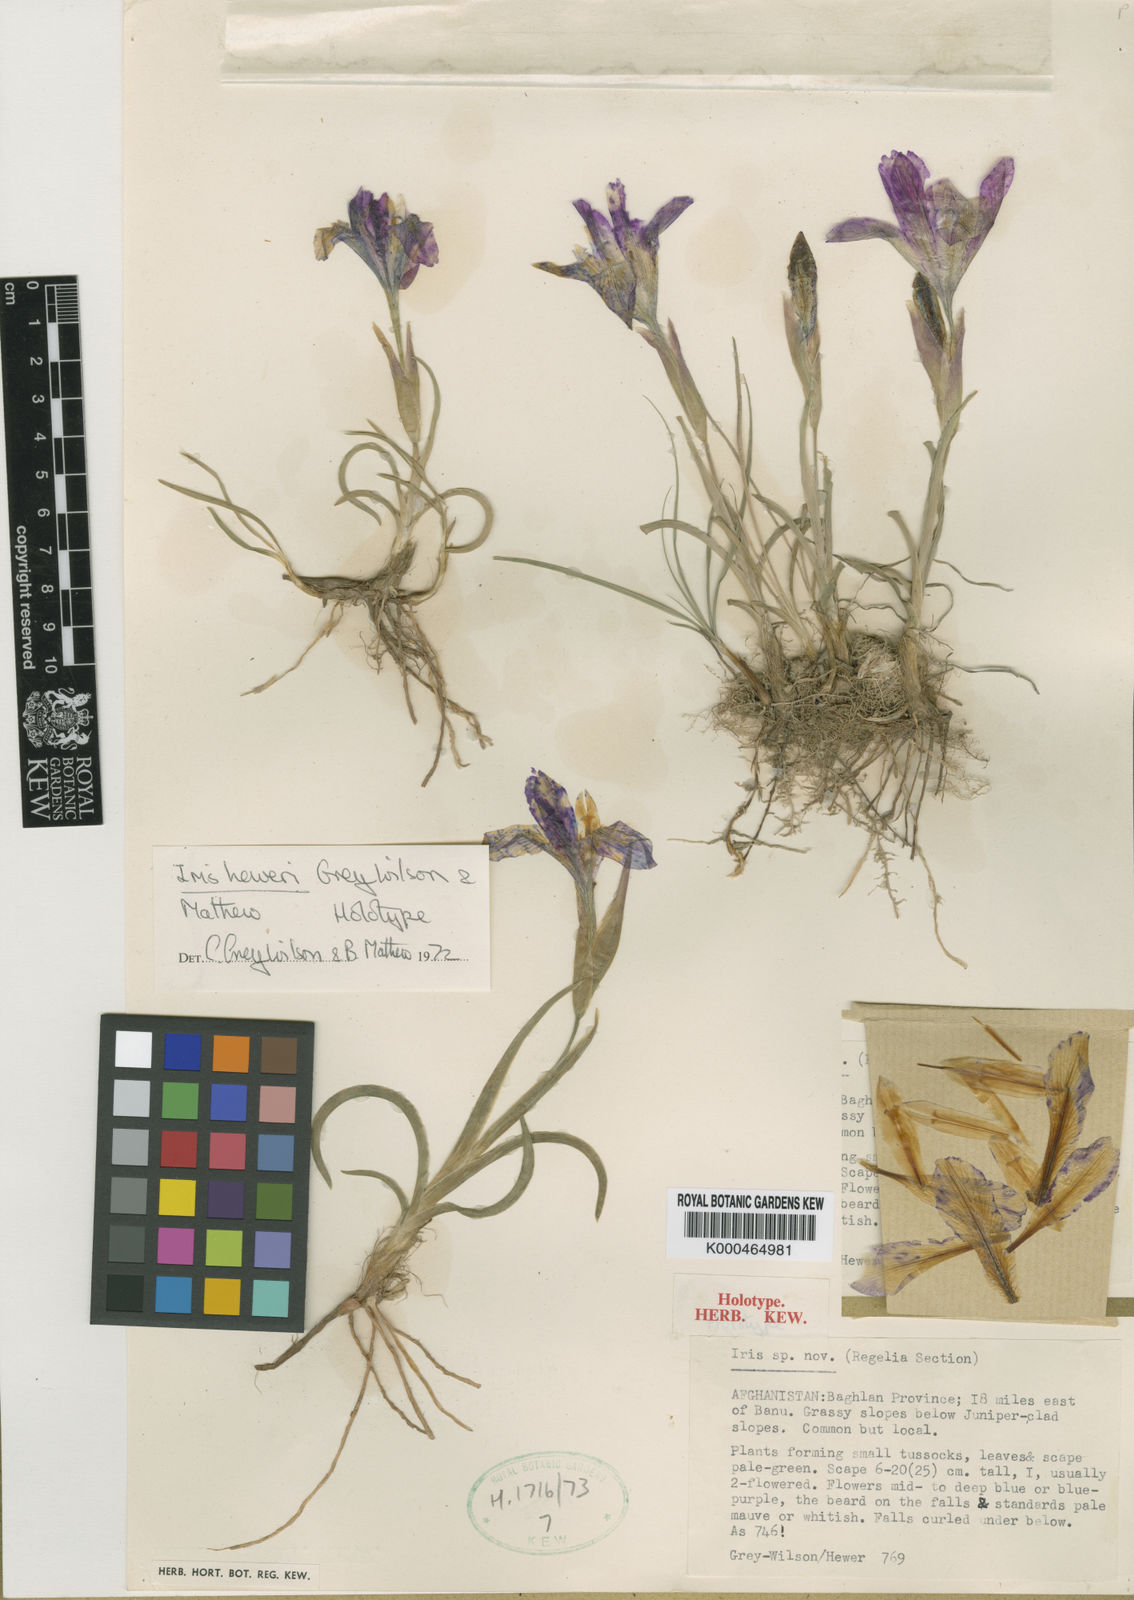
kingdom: Plantae
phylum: Tracheophyta
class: Liliopsida
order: Asparagales
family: Iridaceae
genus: Iris
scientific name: Iris heweri
